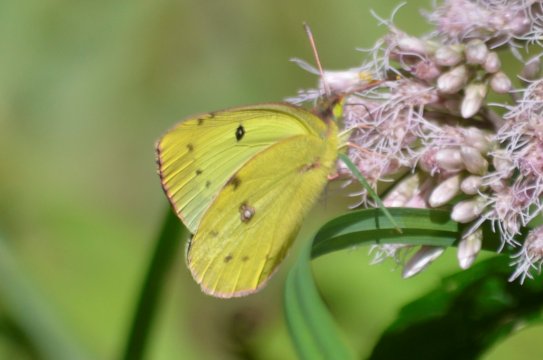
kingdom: Animalia
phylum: Arthropoda
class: Insecta
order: Lepidoptera
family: Pieridae
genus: Colias
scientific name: Colias philodice
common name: Clouded Sulphur
